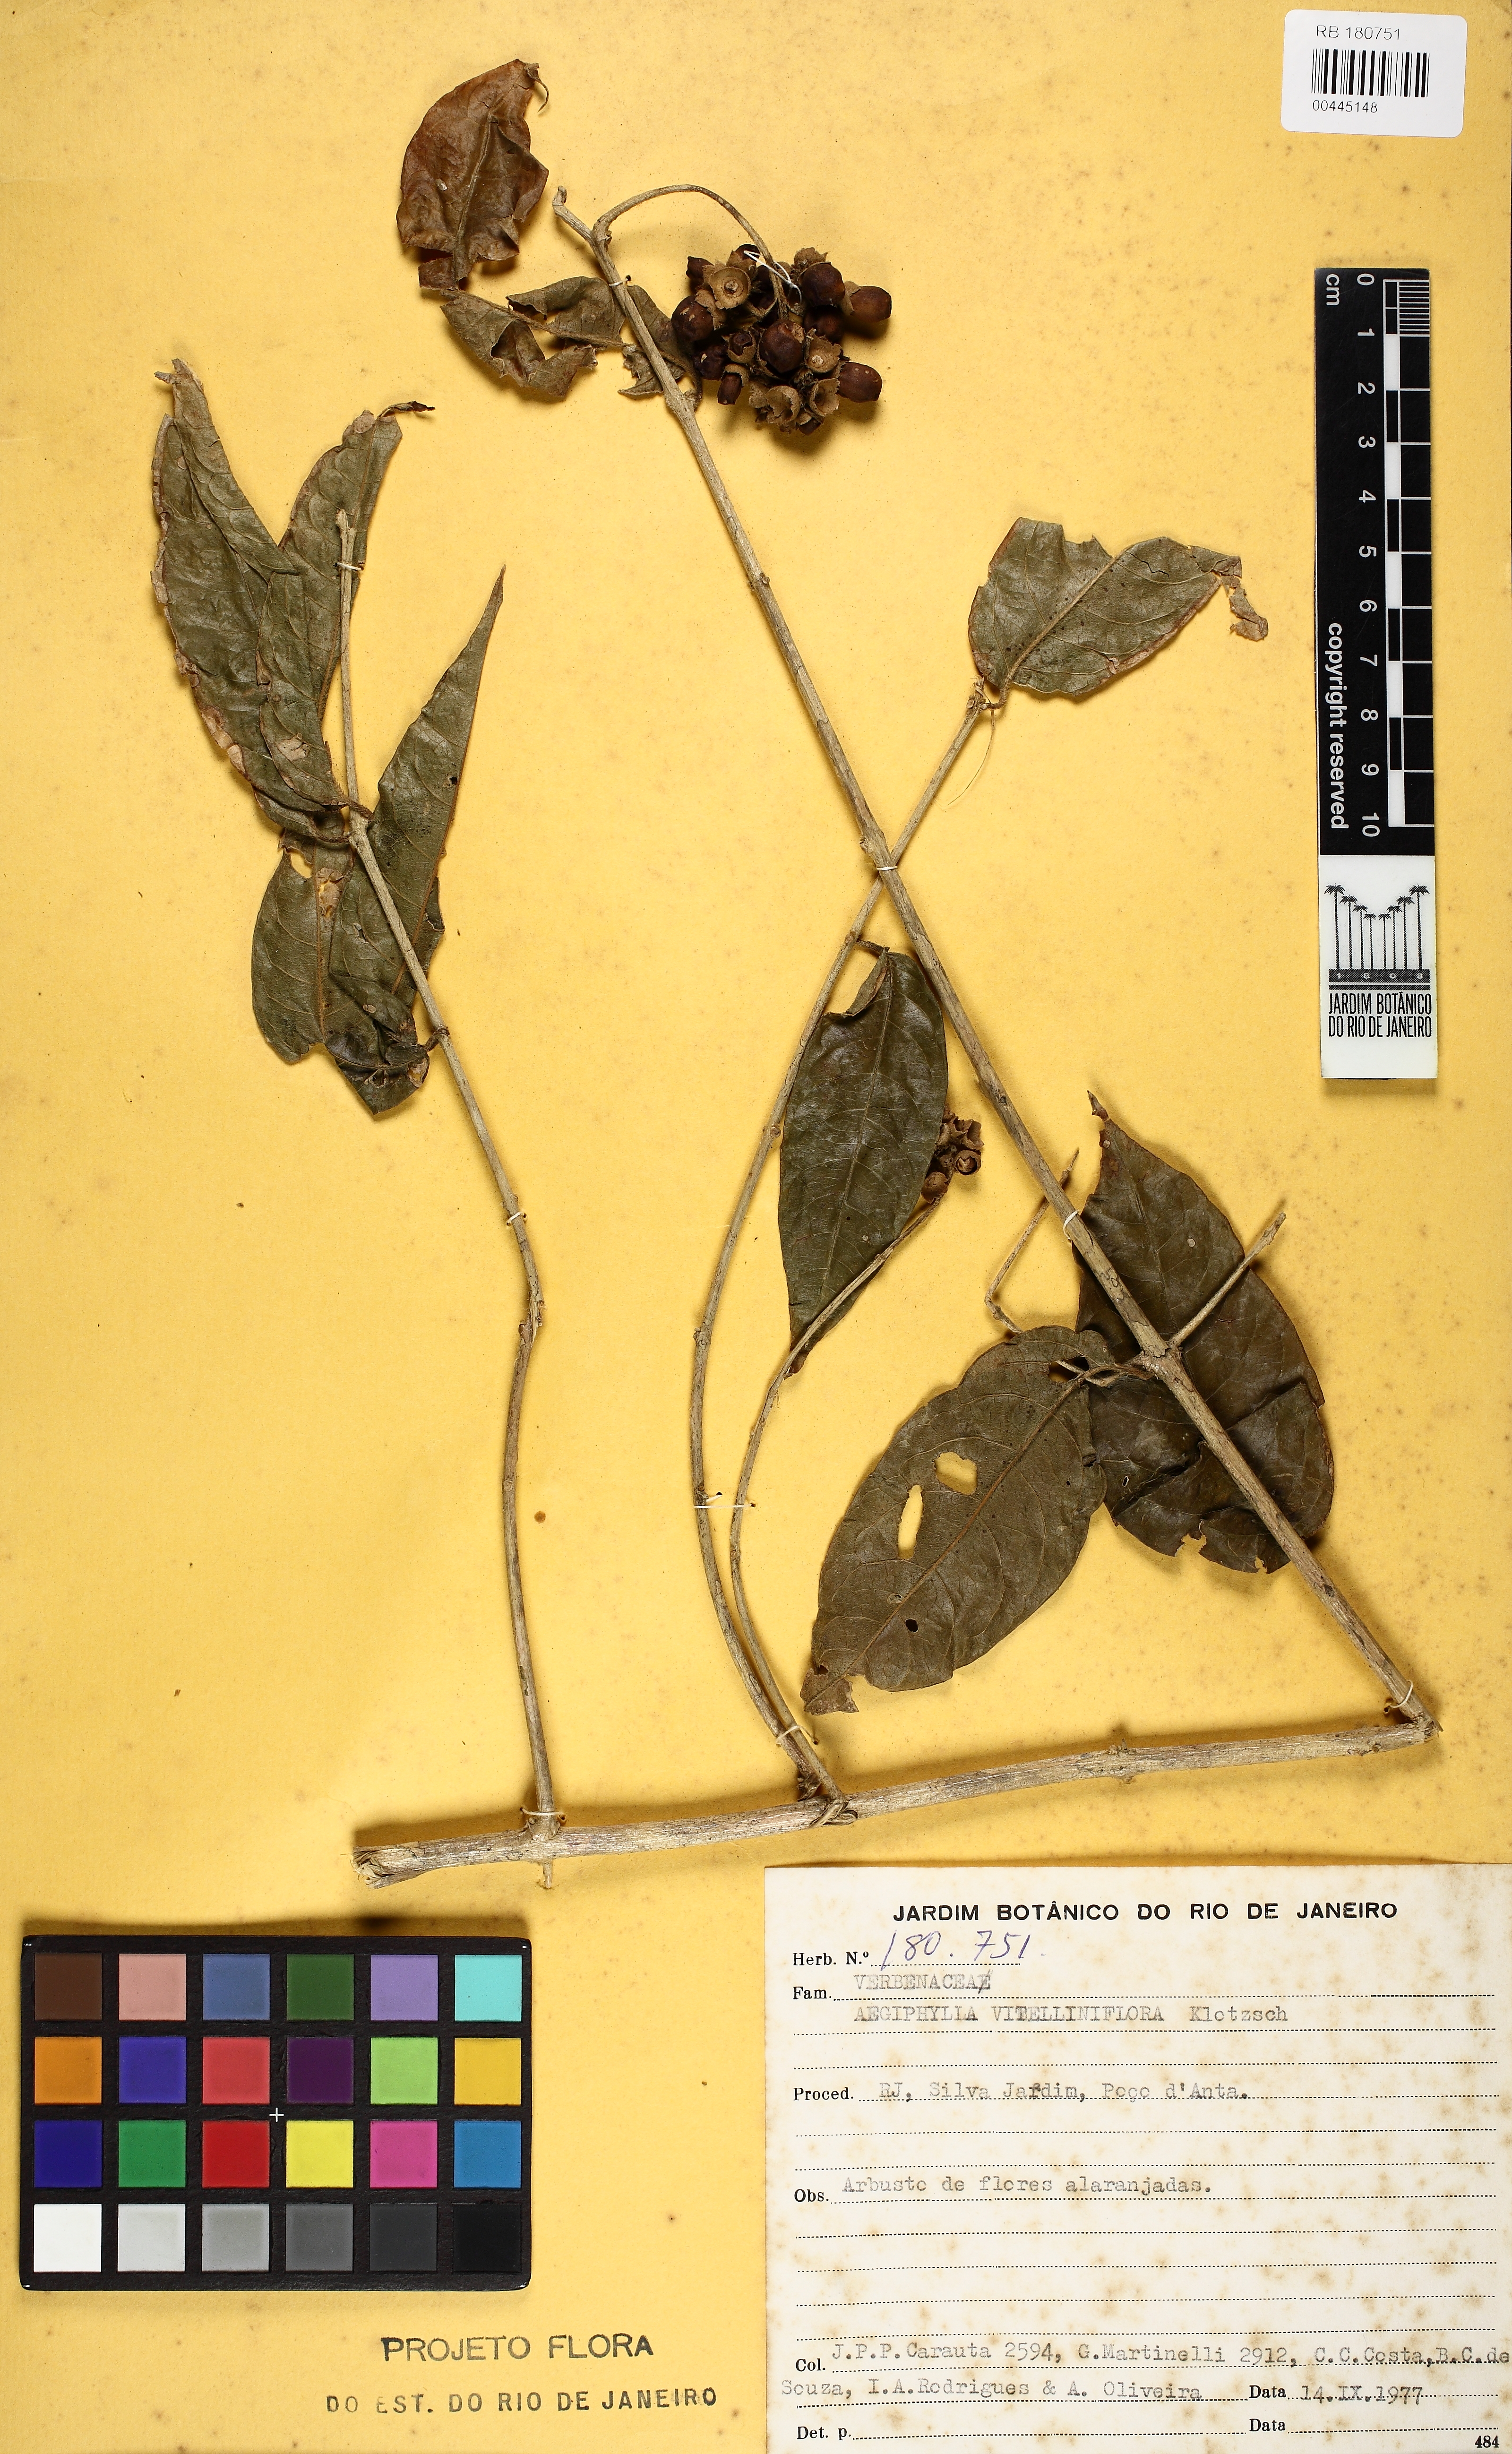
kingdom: Plantae
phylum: Tracheophyta
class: Magnoliopsida
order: Lamiales
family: Lamiaceae
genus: Aegiphila
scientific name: Aegiphila vitelliniflora
